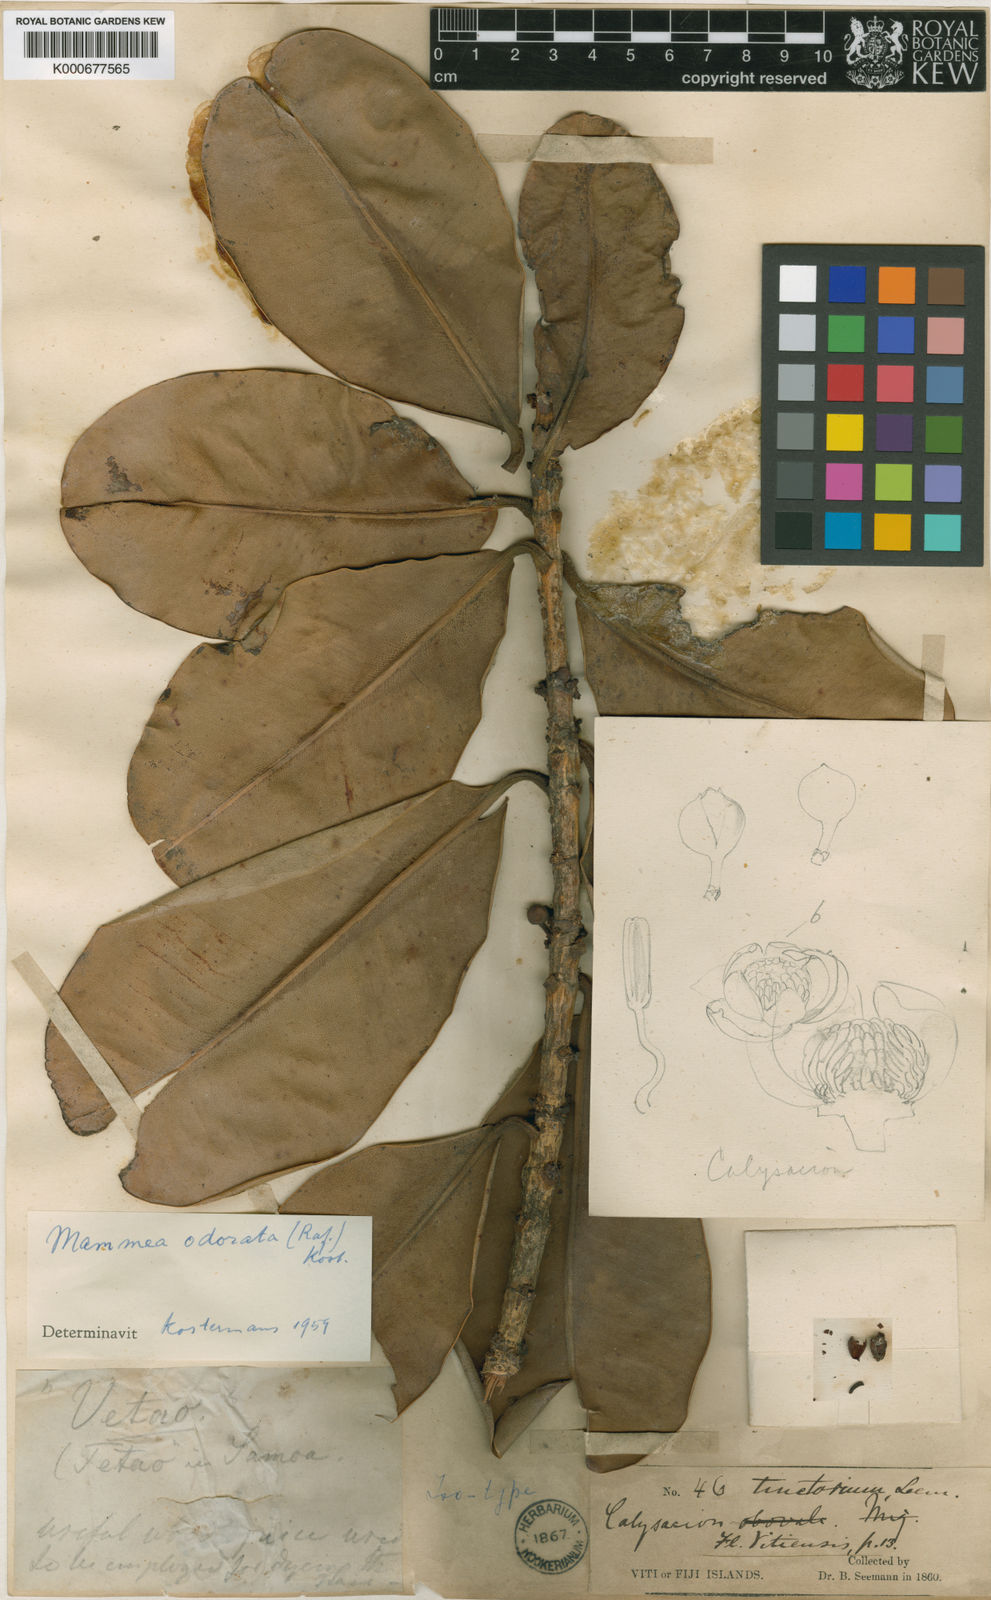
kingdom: Plantae
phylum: Tracheophyta
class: Magnoliopsida
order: Malpighiales
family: Calophyllaceae
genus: Mammea
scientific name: Mammea odorata
